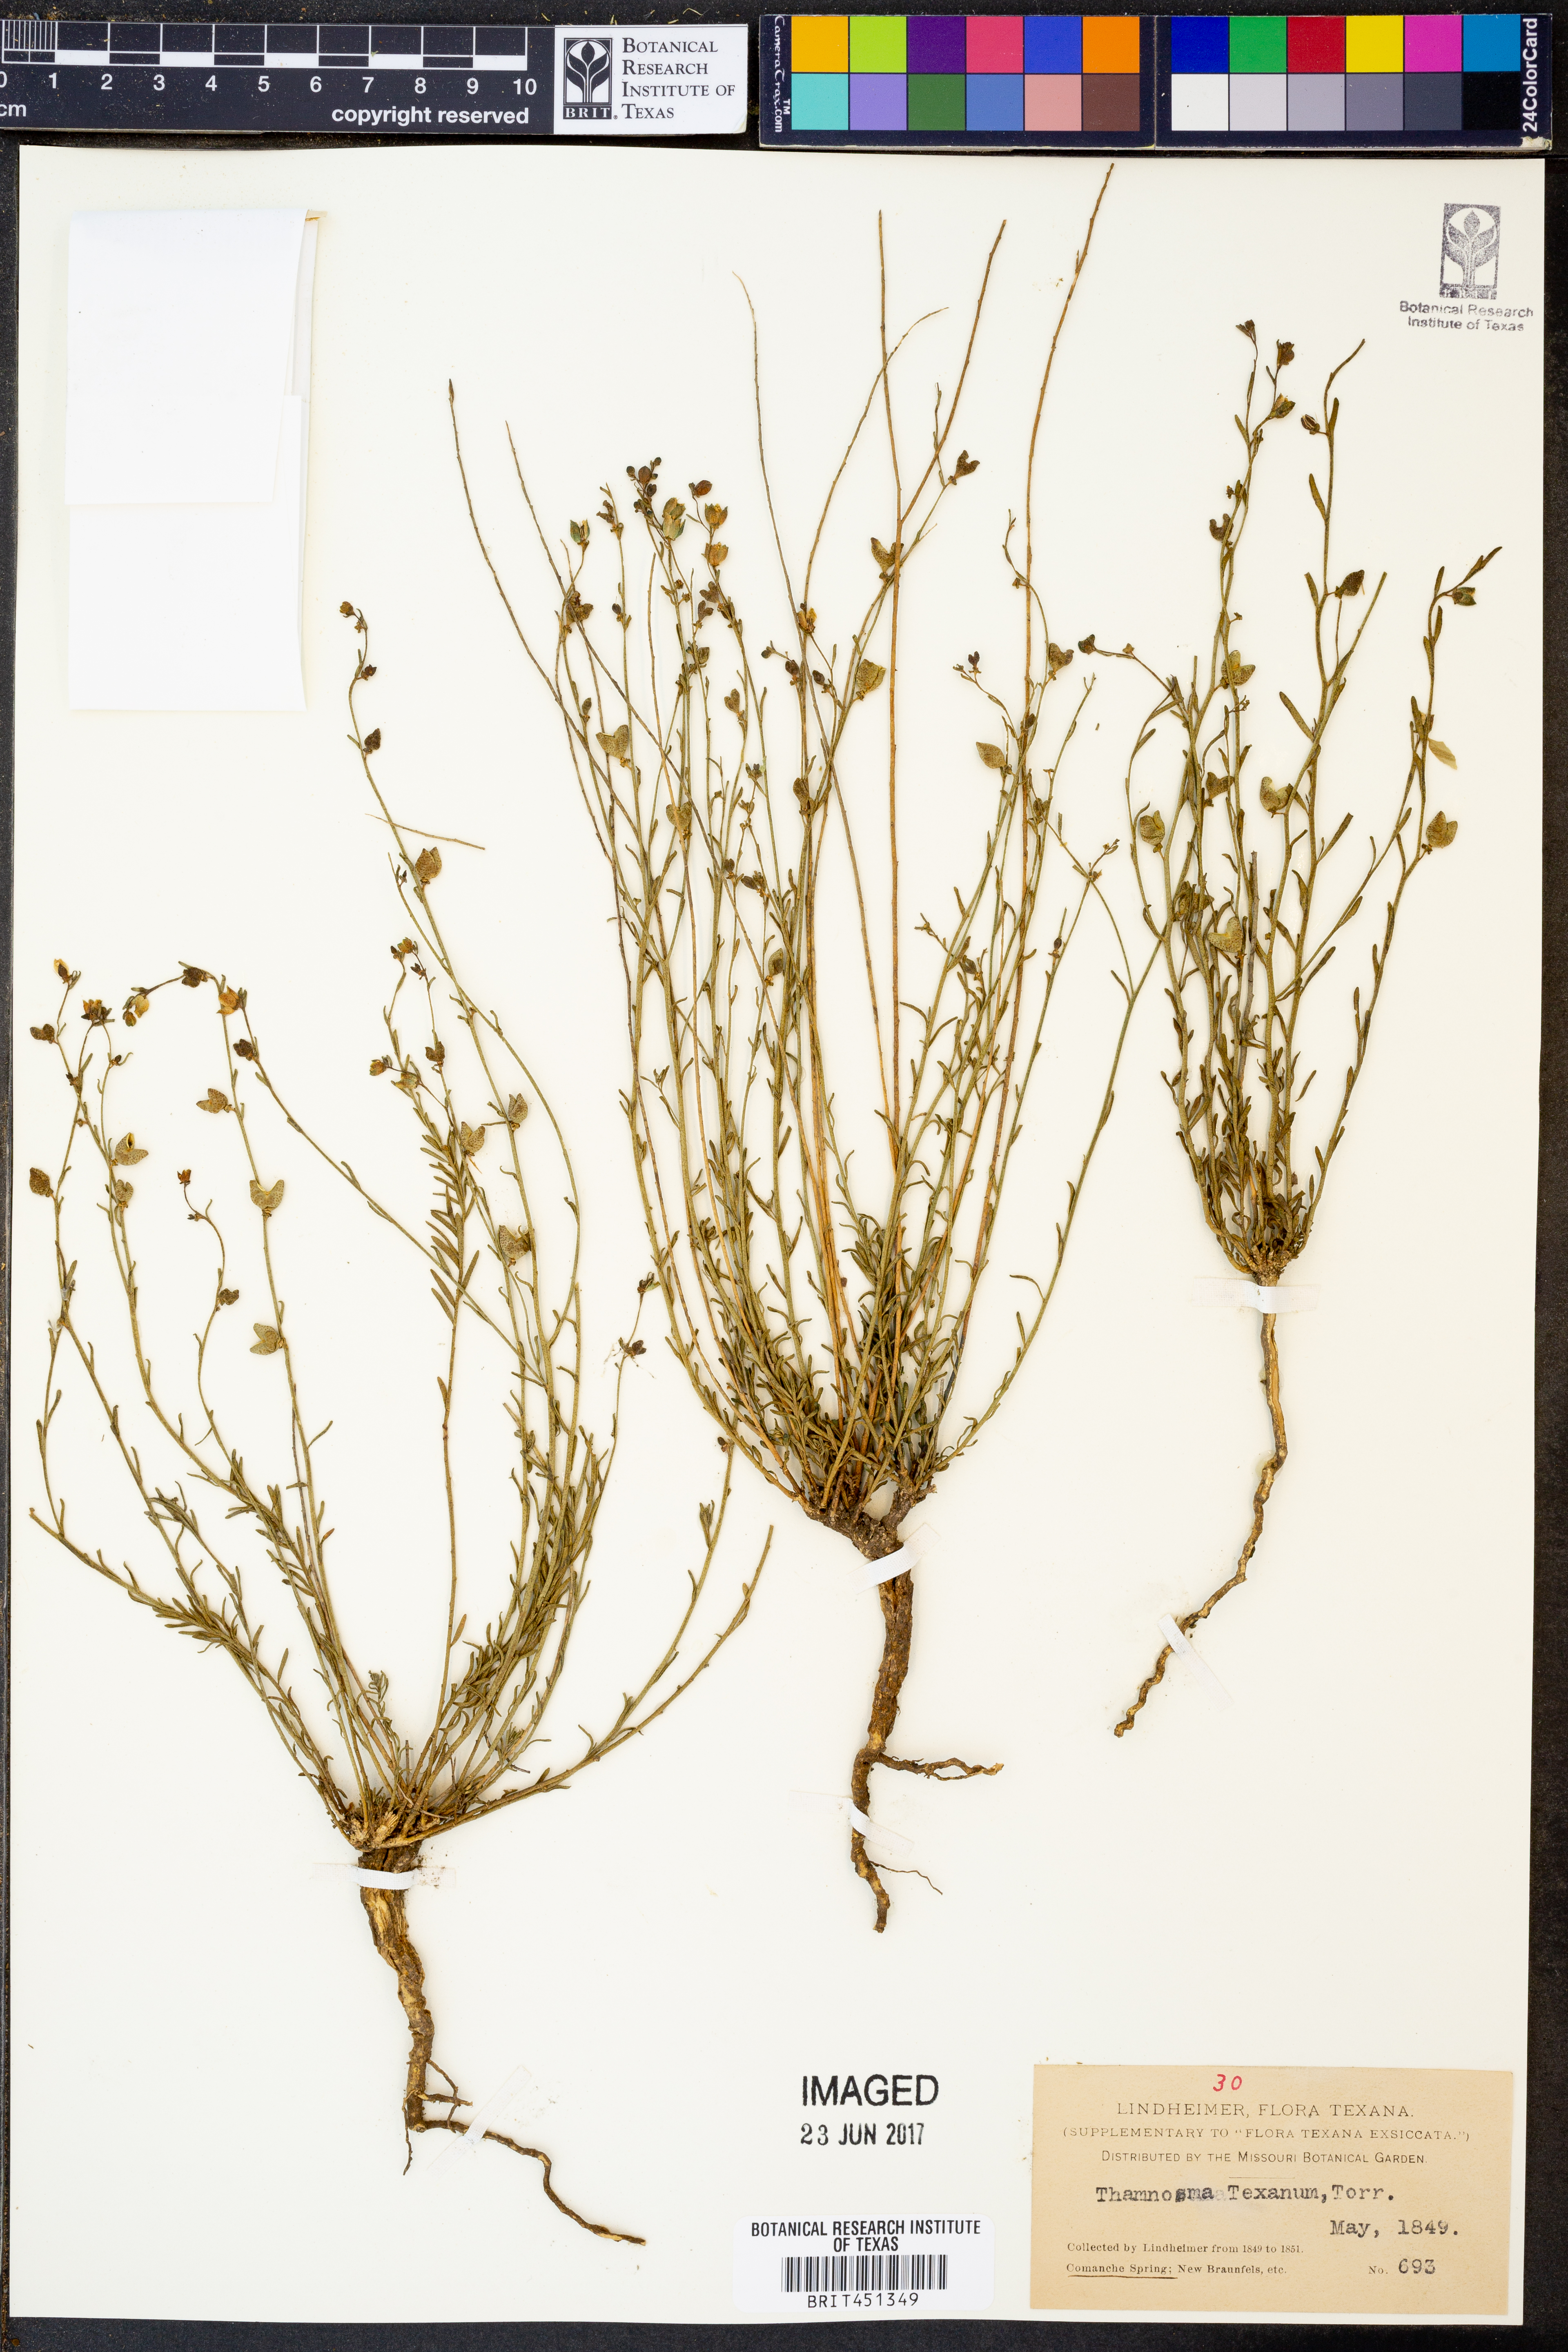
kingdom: Plantae
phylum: Tracheophyta
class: Magnoliopsida
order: Sapindales
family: Rutaceae
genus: Thamnosma
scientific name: Thamnosma texana
